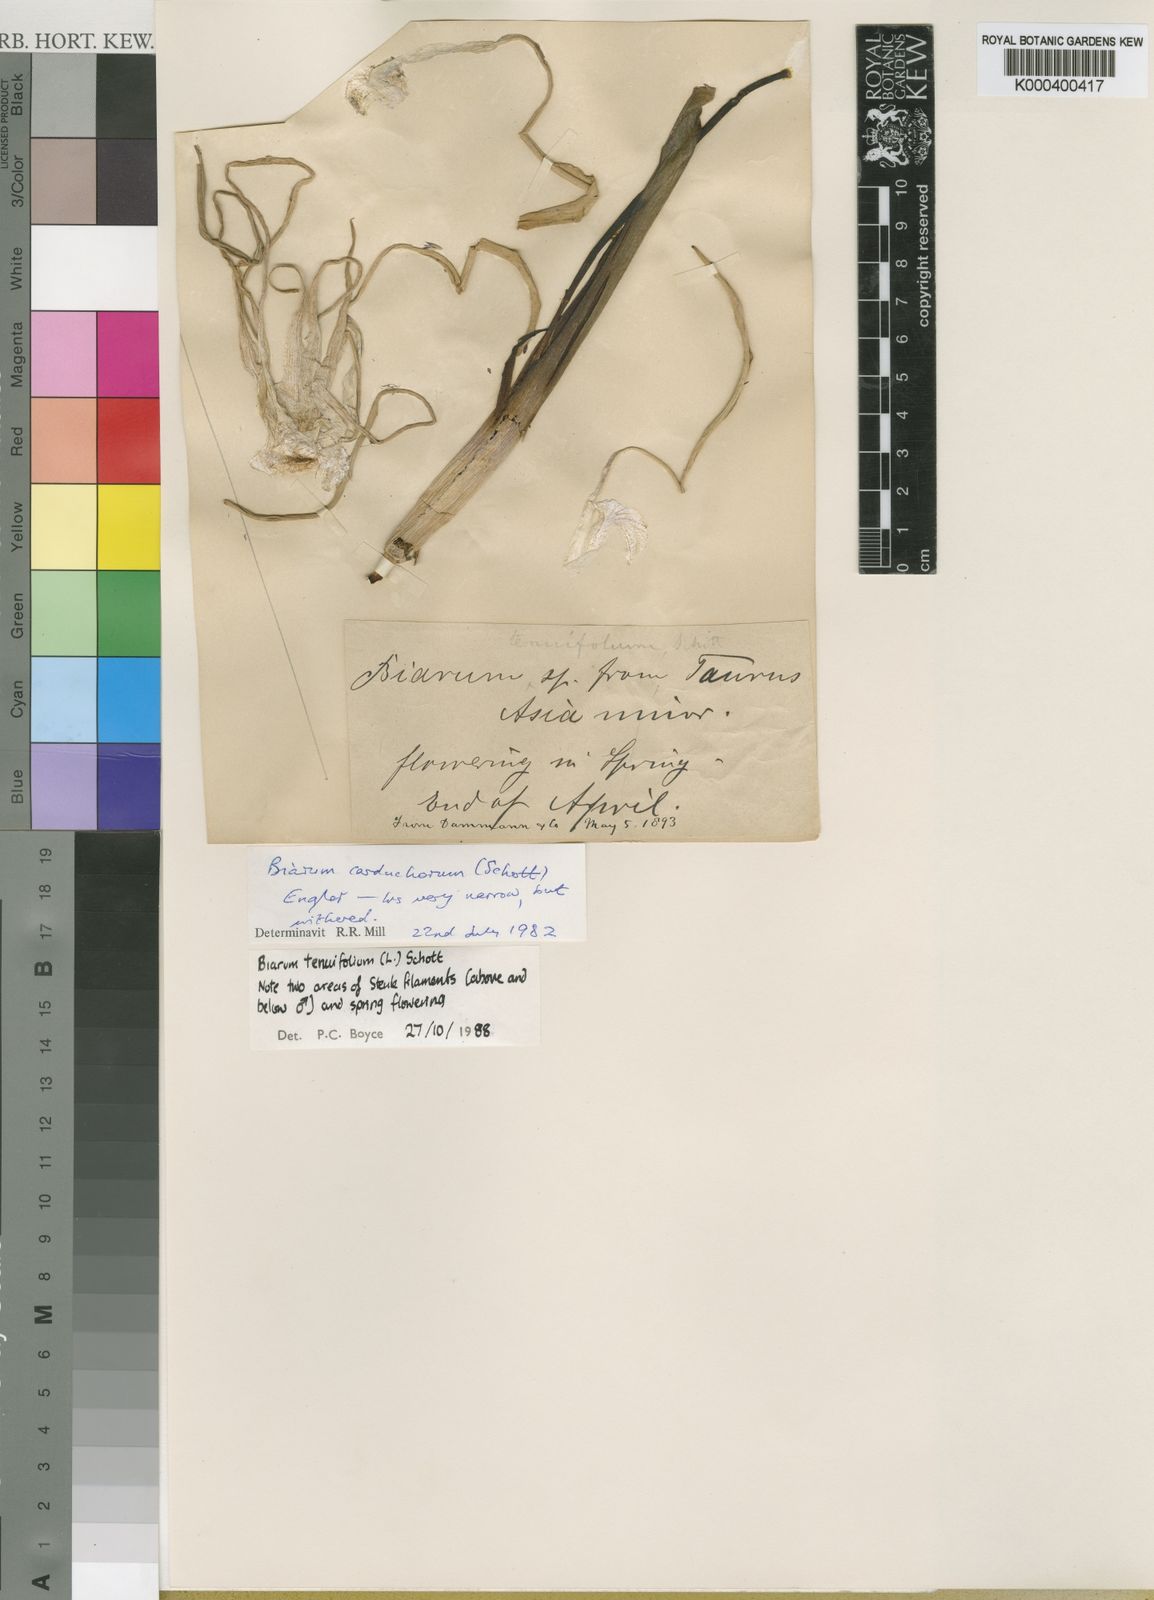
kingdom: Plantae
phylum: Tracheophyta
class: Liliopsida
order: Alismatales
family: Araceae
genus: Biarum
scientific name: Biarum tenuifolium
